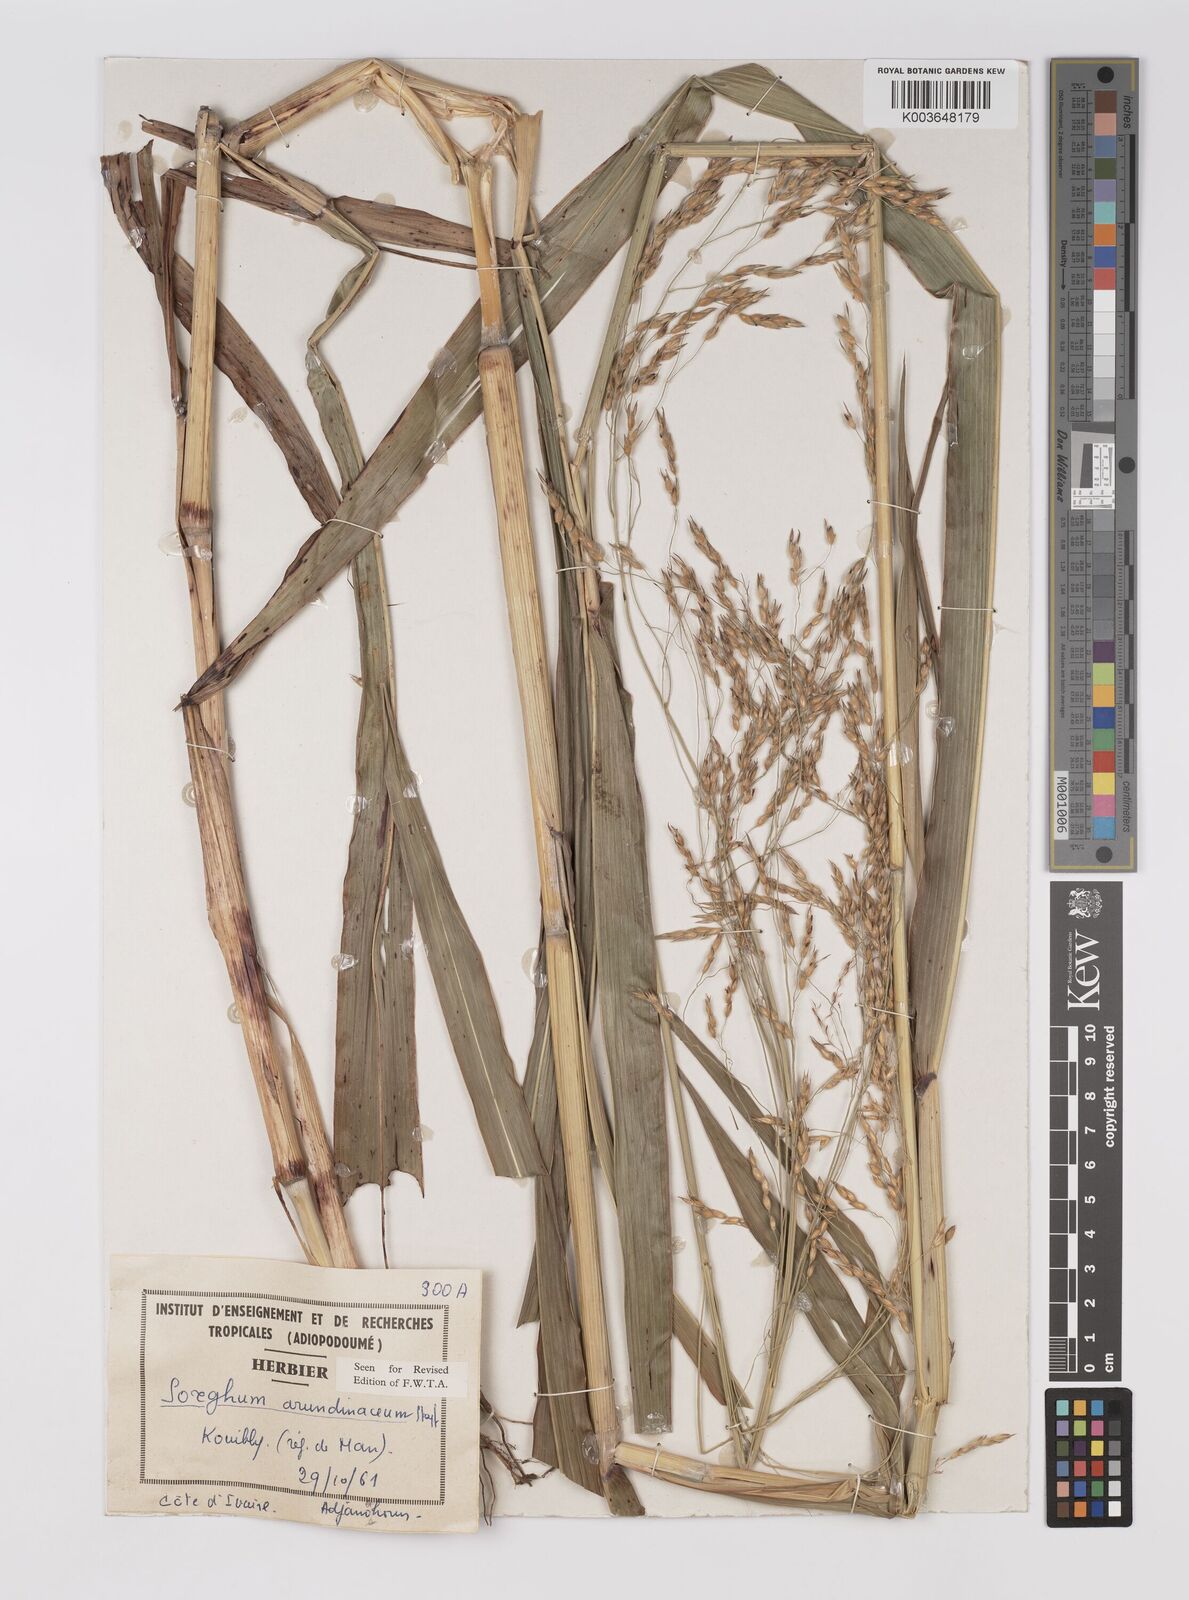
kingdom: Plantae
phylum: Tracheophyta
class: Liliopsida
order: Poales
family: Poaceae
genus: Sorghum
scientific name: Sorghum arundinaceum
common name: Sorghum
